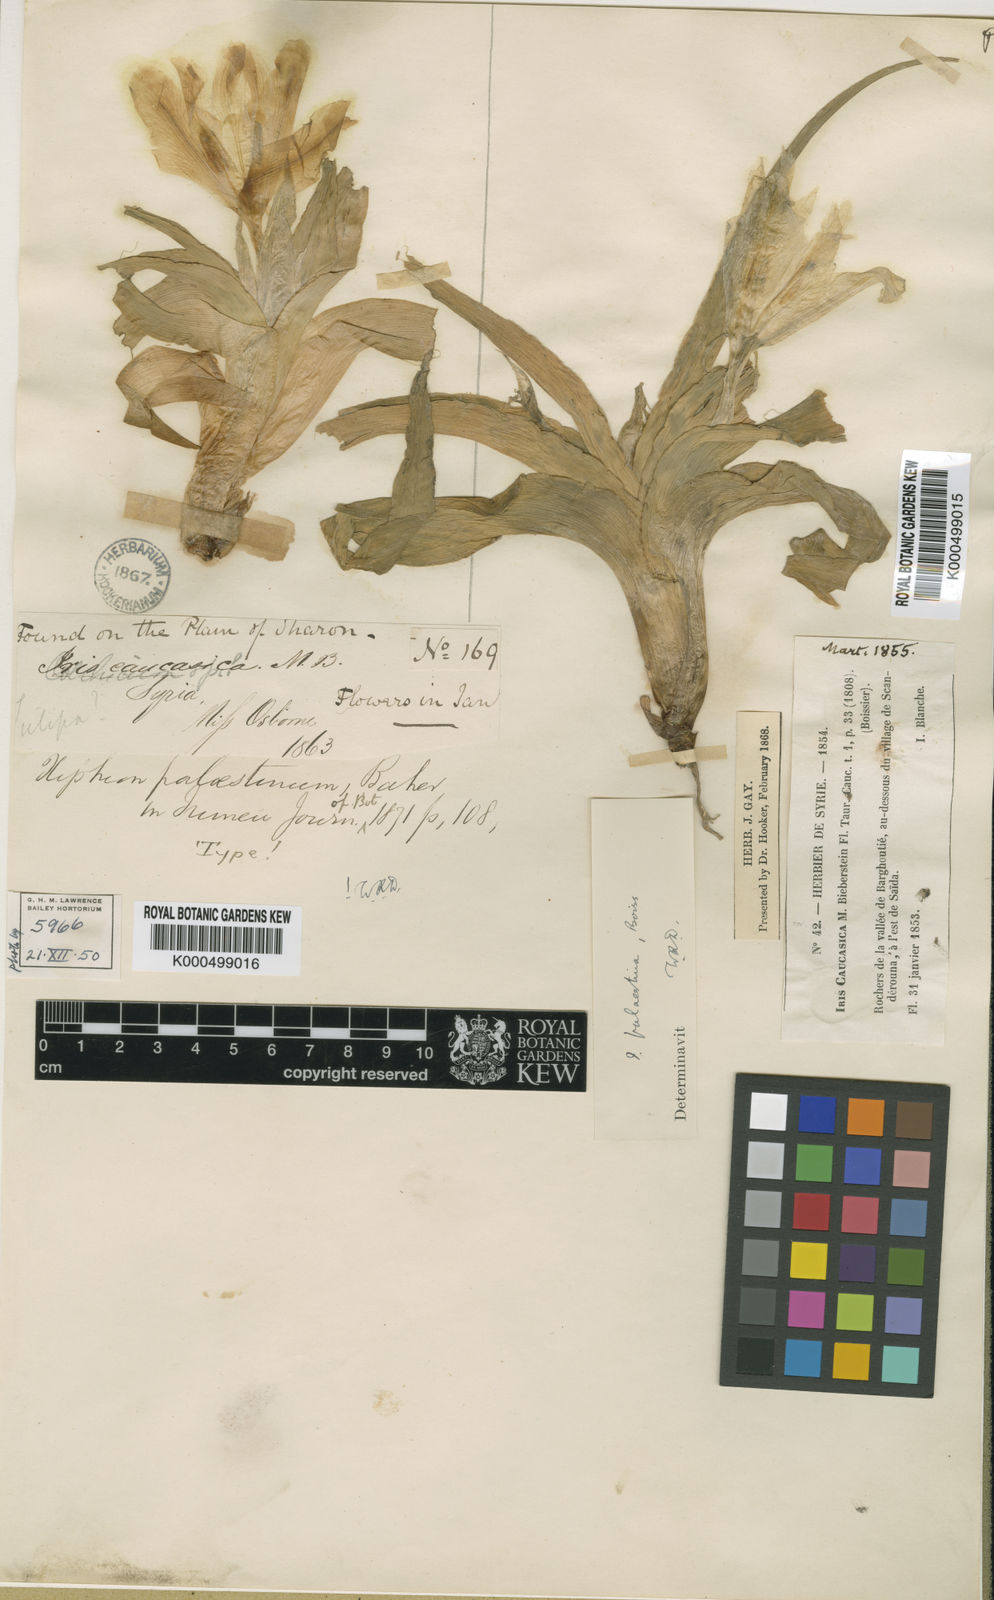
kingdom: Plantae
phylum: Tracheophyta
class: Liliopsida
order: Asparagales
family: Iridaceae
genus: Iris
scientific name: Iris
